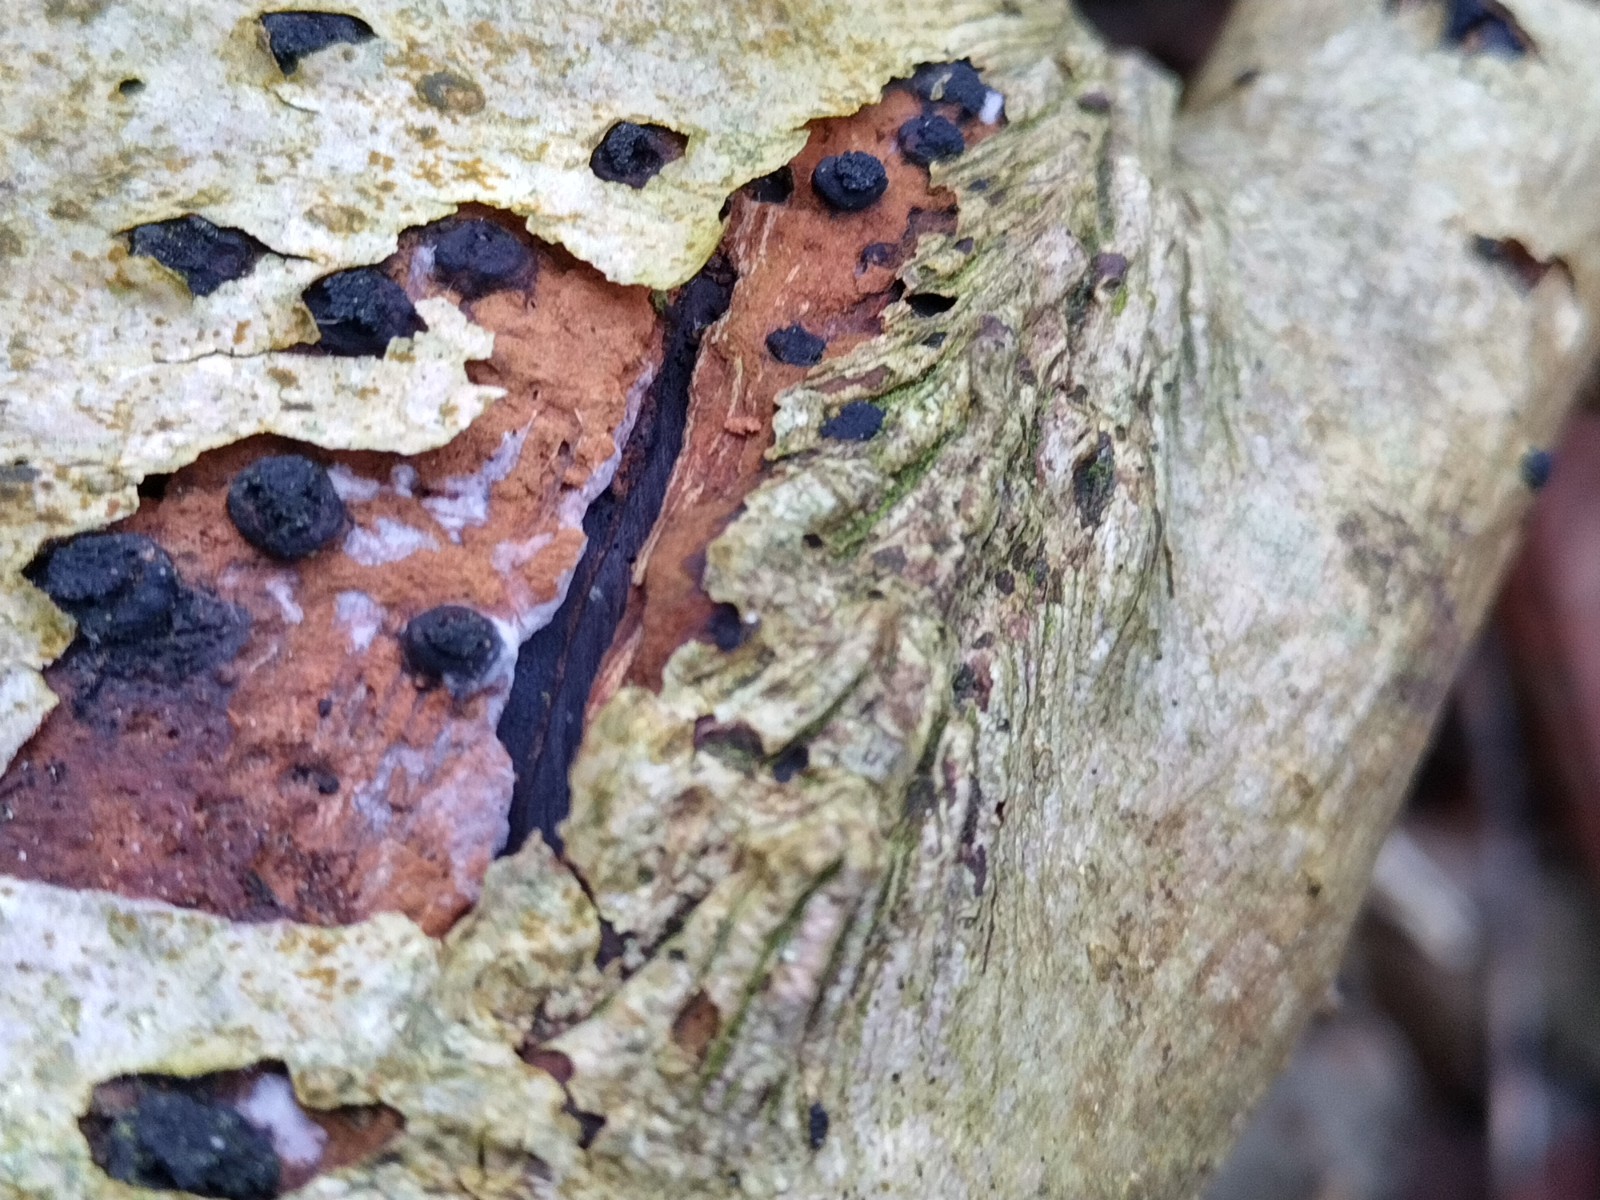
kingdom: Fungi
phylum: Ascomycota
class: Sordariomycetes
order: Xylariales
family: Diatrypaceae
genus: Eutypella
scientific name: Eutypella sorbi
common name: rønne-kulskorpe
